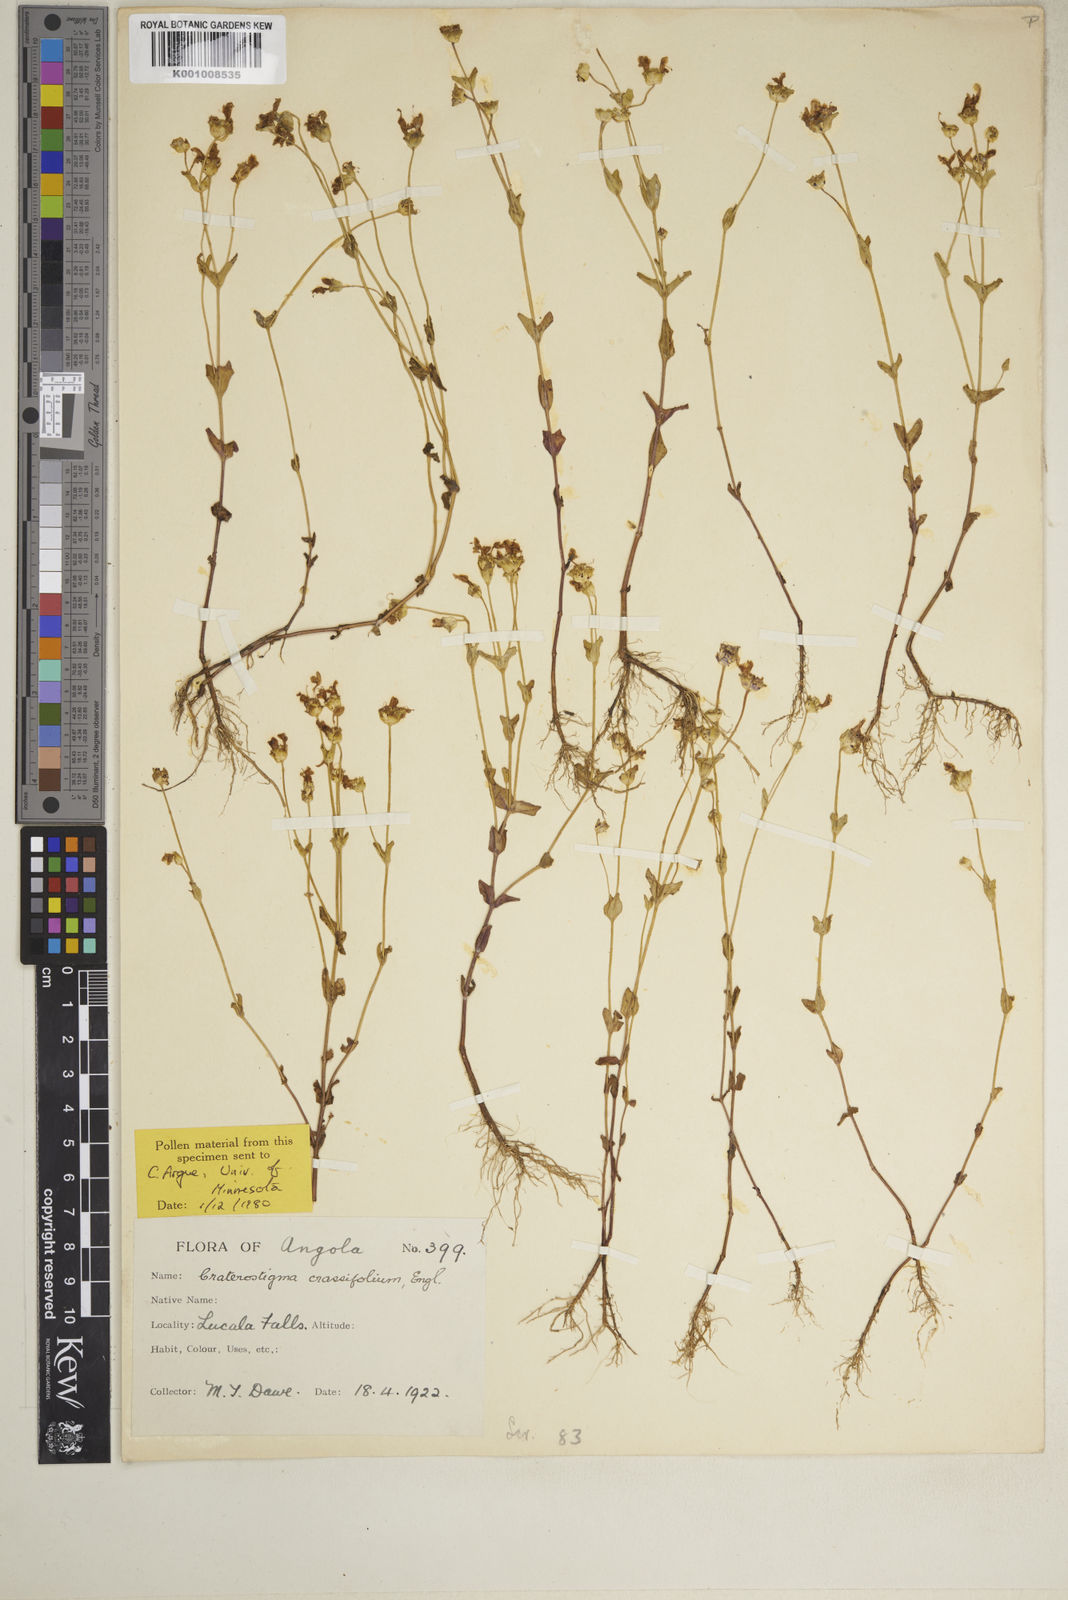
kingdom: Plantae
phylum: Tracheophyta
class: Magnoliopsida
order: Lamiales
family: Linderniaceae
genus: Lindernia
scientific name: Lindernia crassifolia
